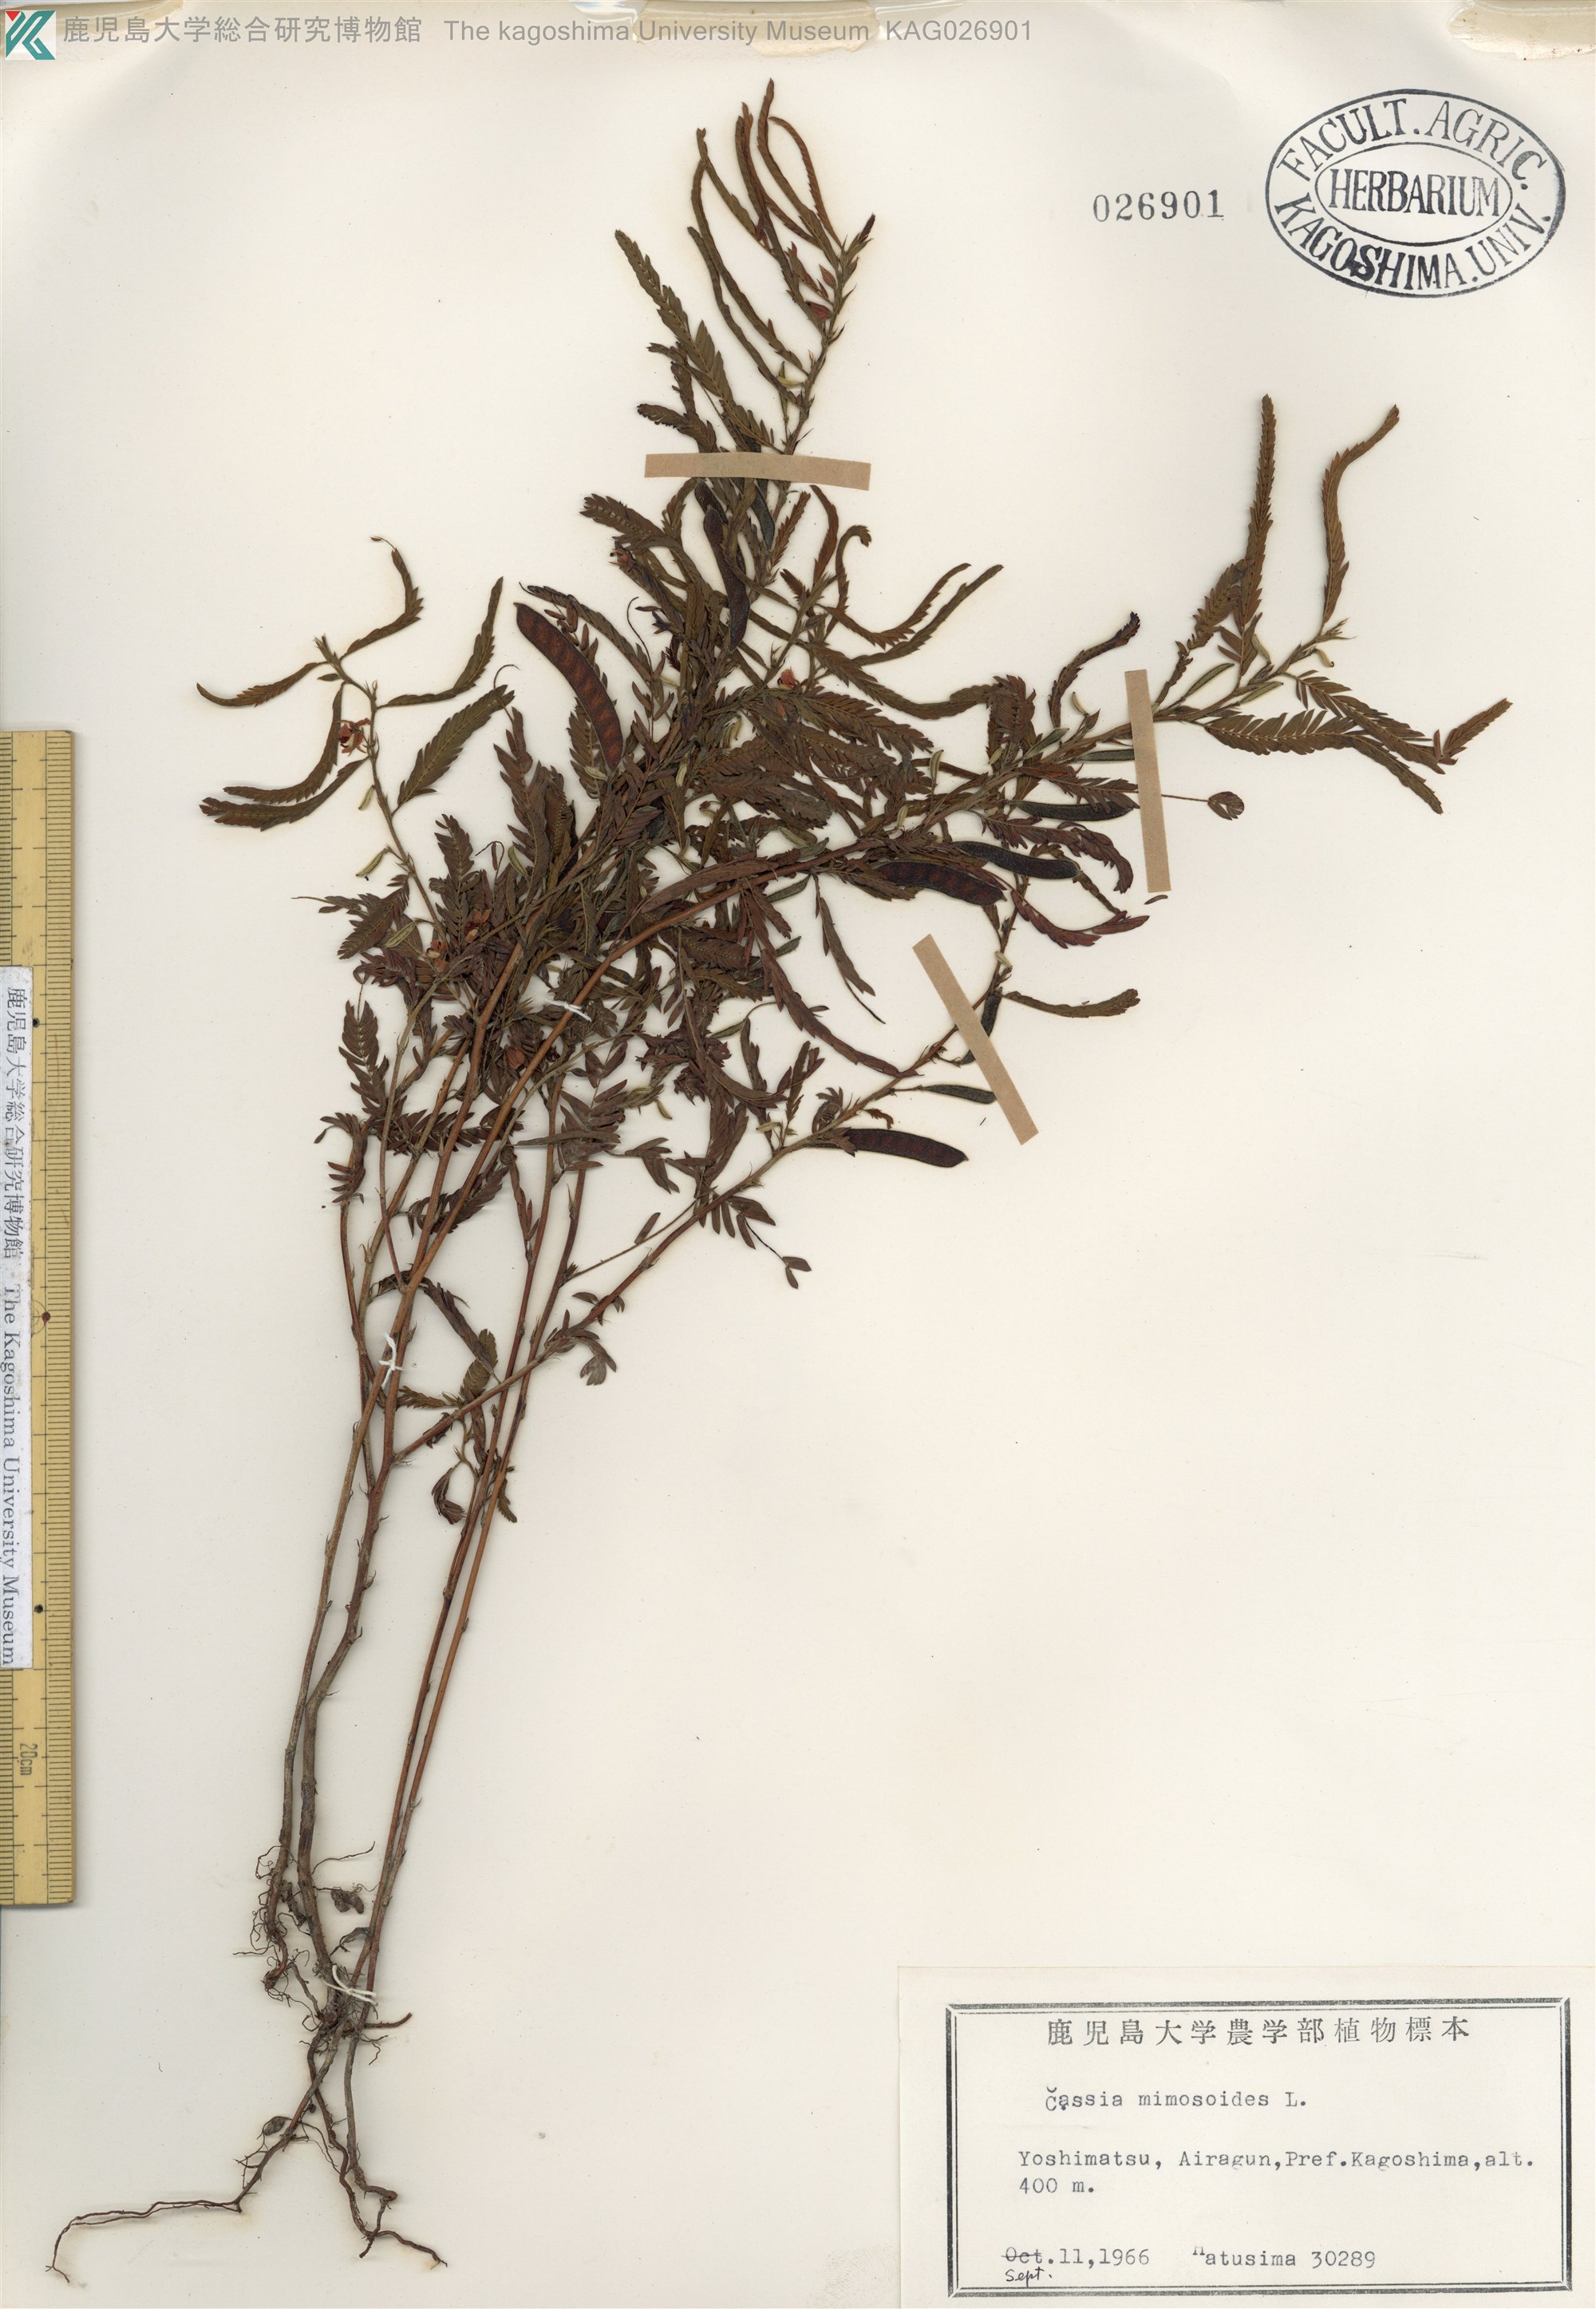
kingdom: Plantae
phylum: Tracheophyta
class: Magnoliopsida
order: Fabales
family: Fabaceae
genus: Chamaecrista
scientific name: Chamaecrista nomame
